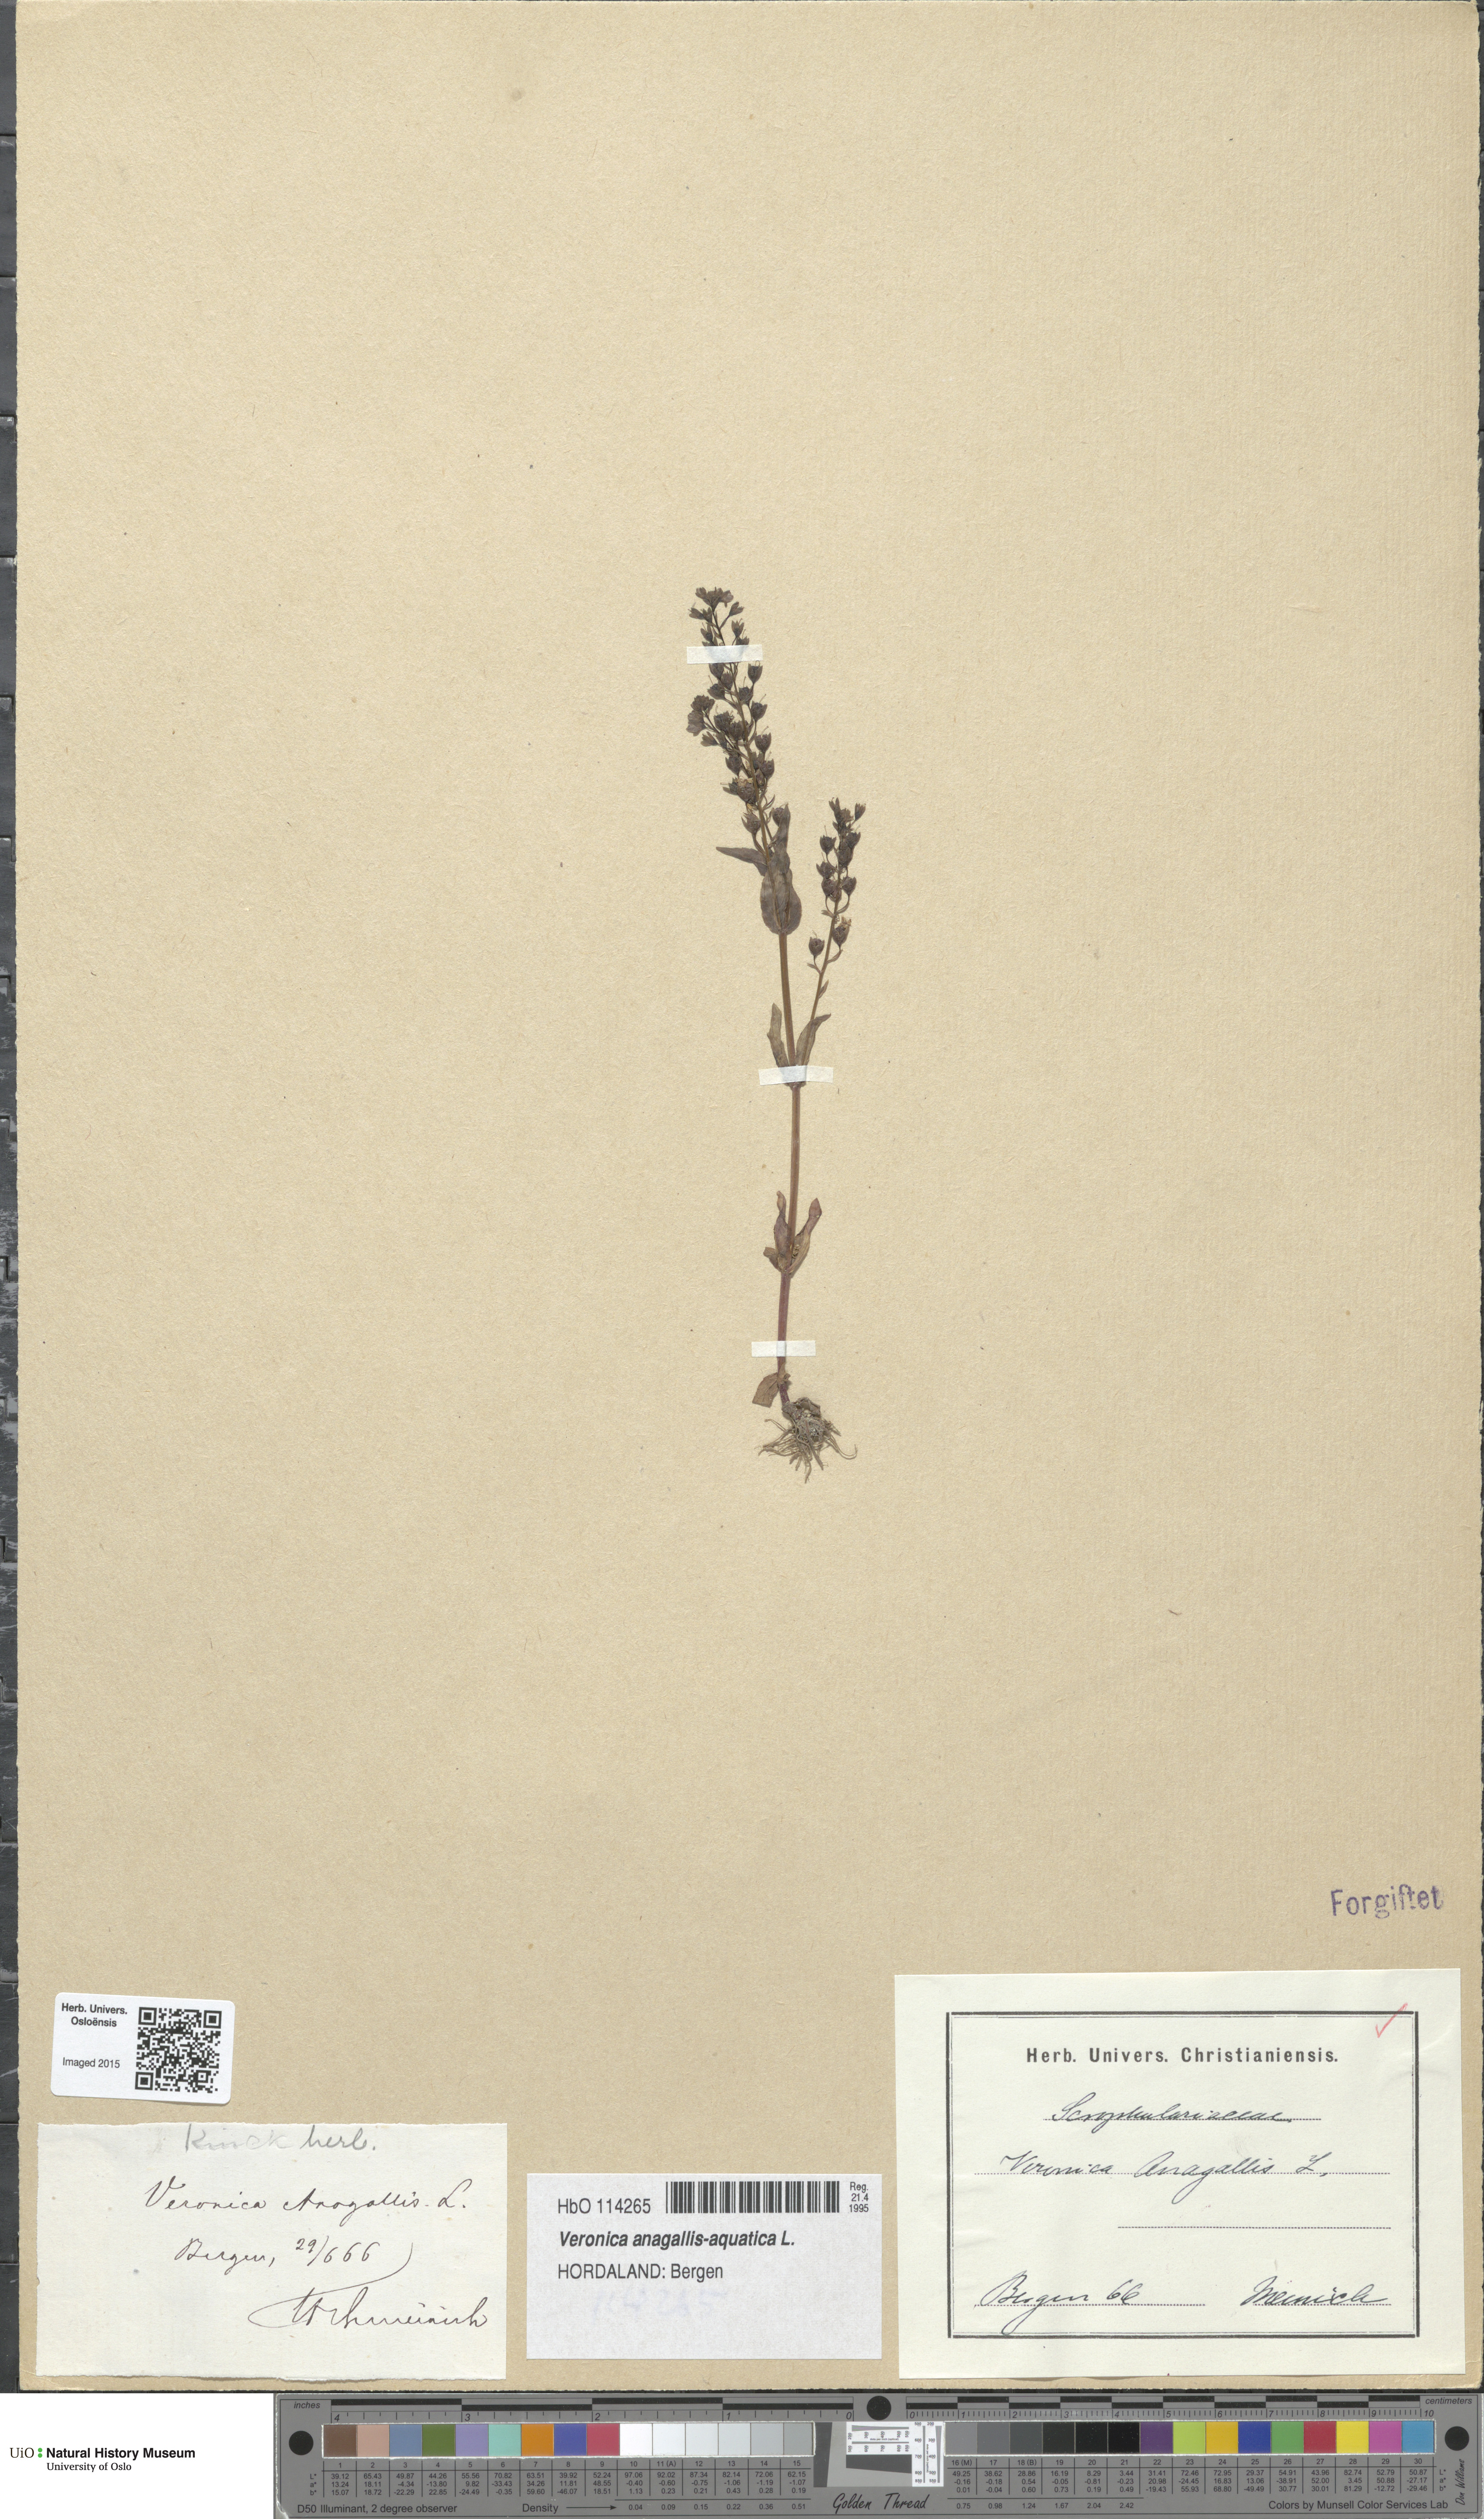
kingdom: Plantae
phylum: Tracheophyta
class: Magnoliopsida
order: Lamiales
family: Plantaginaceae
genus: Veronica
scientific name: Veronica anagallis-aquatica
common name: Water speedwell
